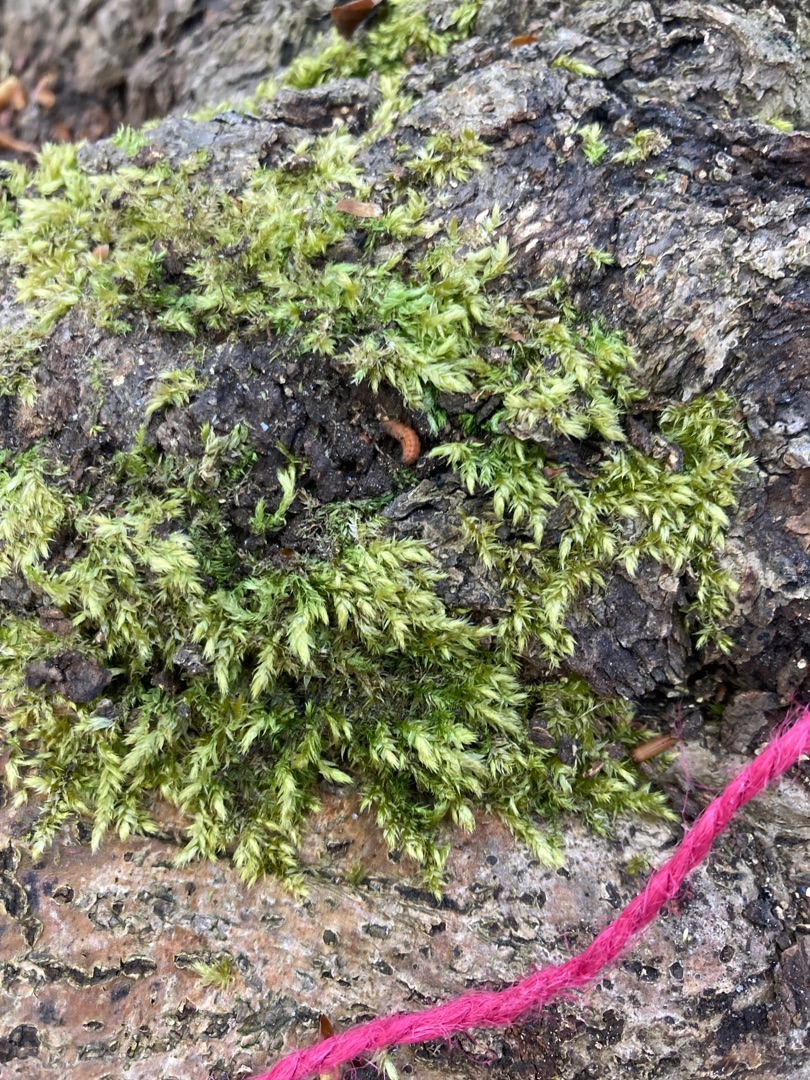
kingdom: Plantae
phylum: Bryophyta
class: Bryopsida
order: Hypnales
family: Brachytheciaceae
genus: Brachythecium
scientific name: Brachythecium rutabulum
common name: Almindelig kortkapsel
